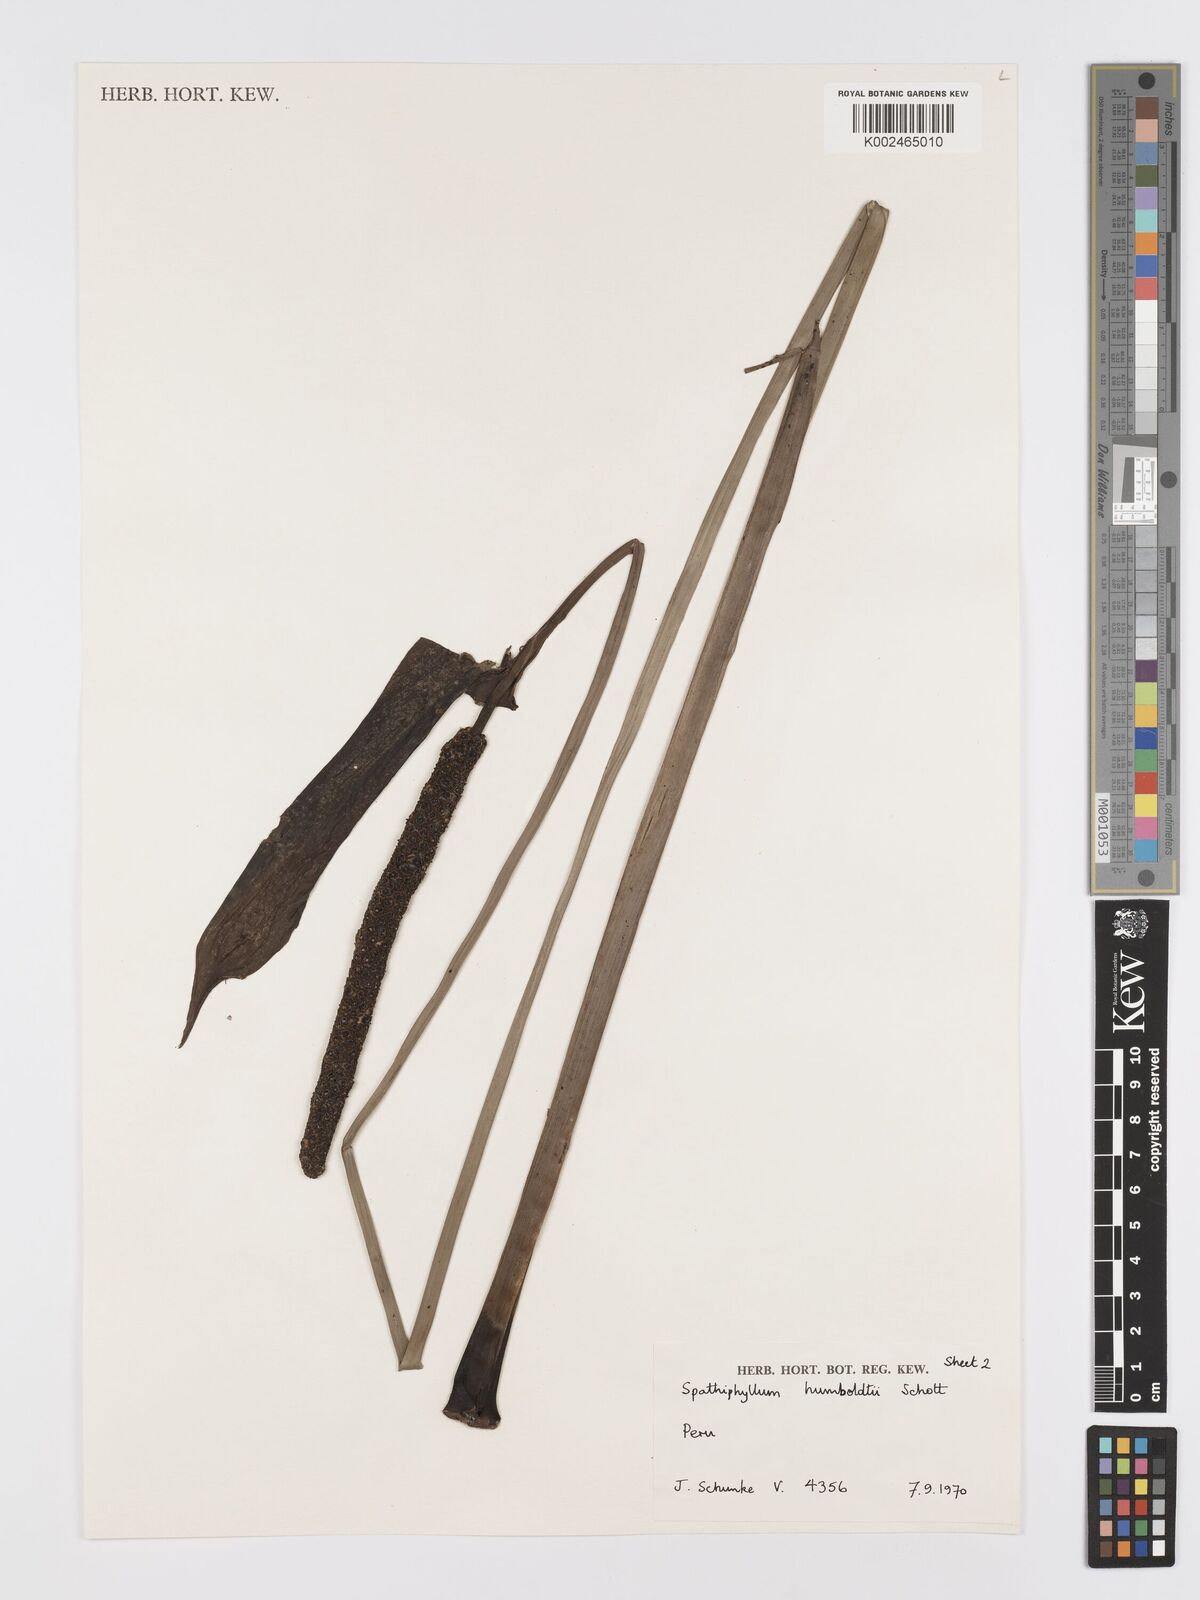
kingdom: Plantae
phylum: Tracheophyta
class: Liliopsida
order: Alismatales
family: Araceae
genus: Spathiphyllum
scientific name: Spathiphyllum humboldtii
